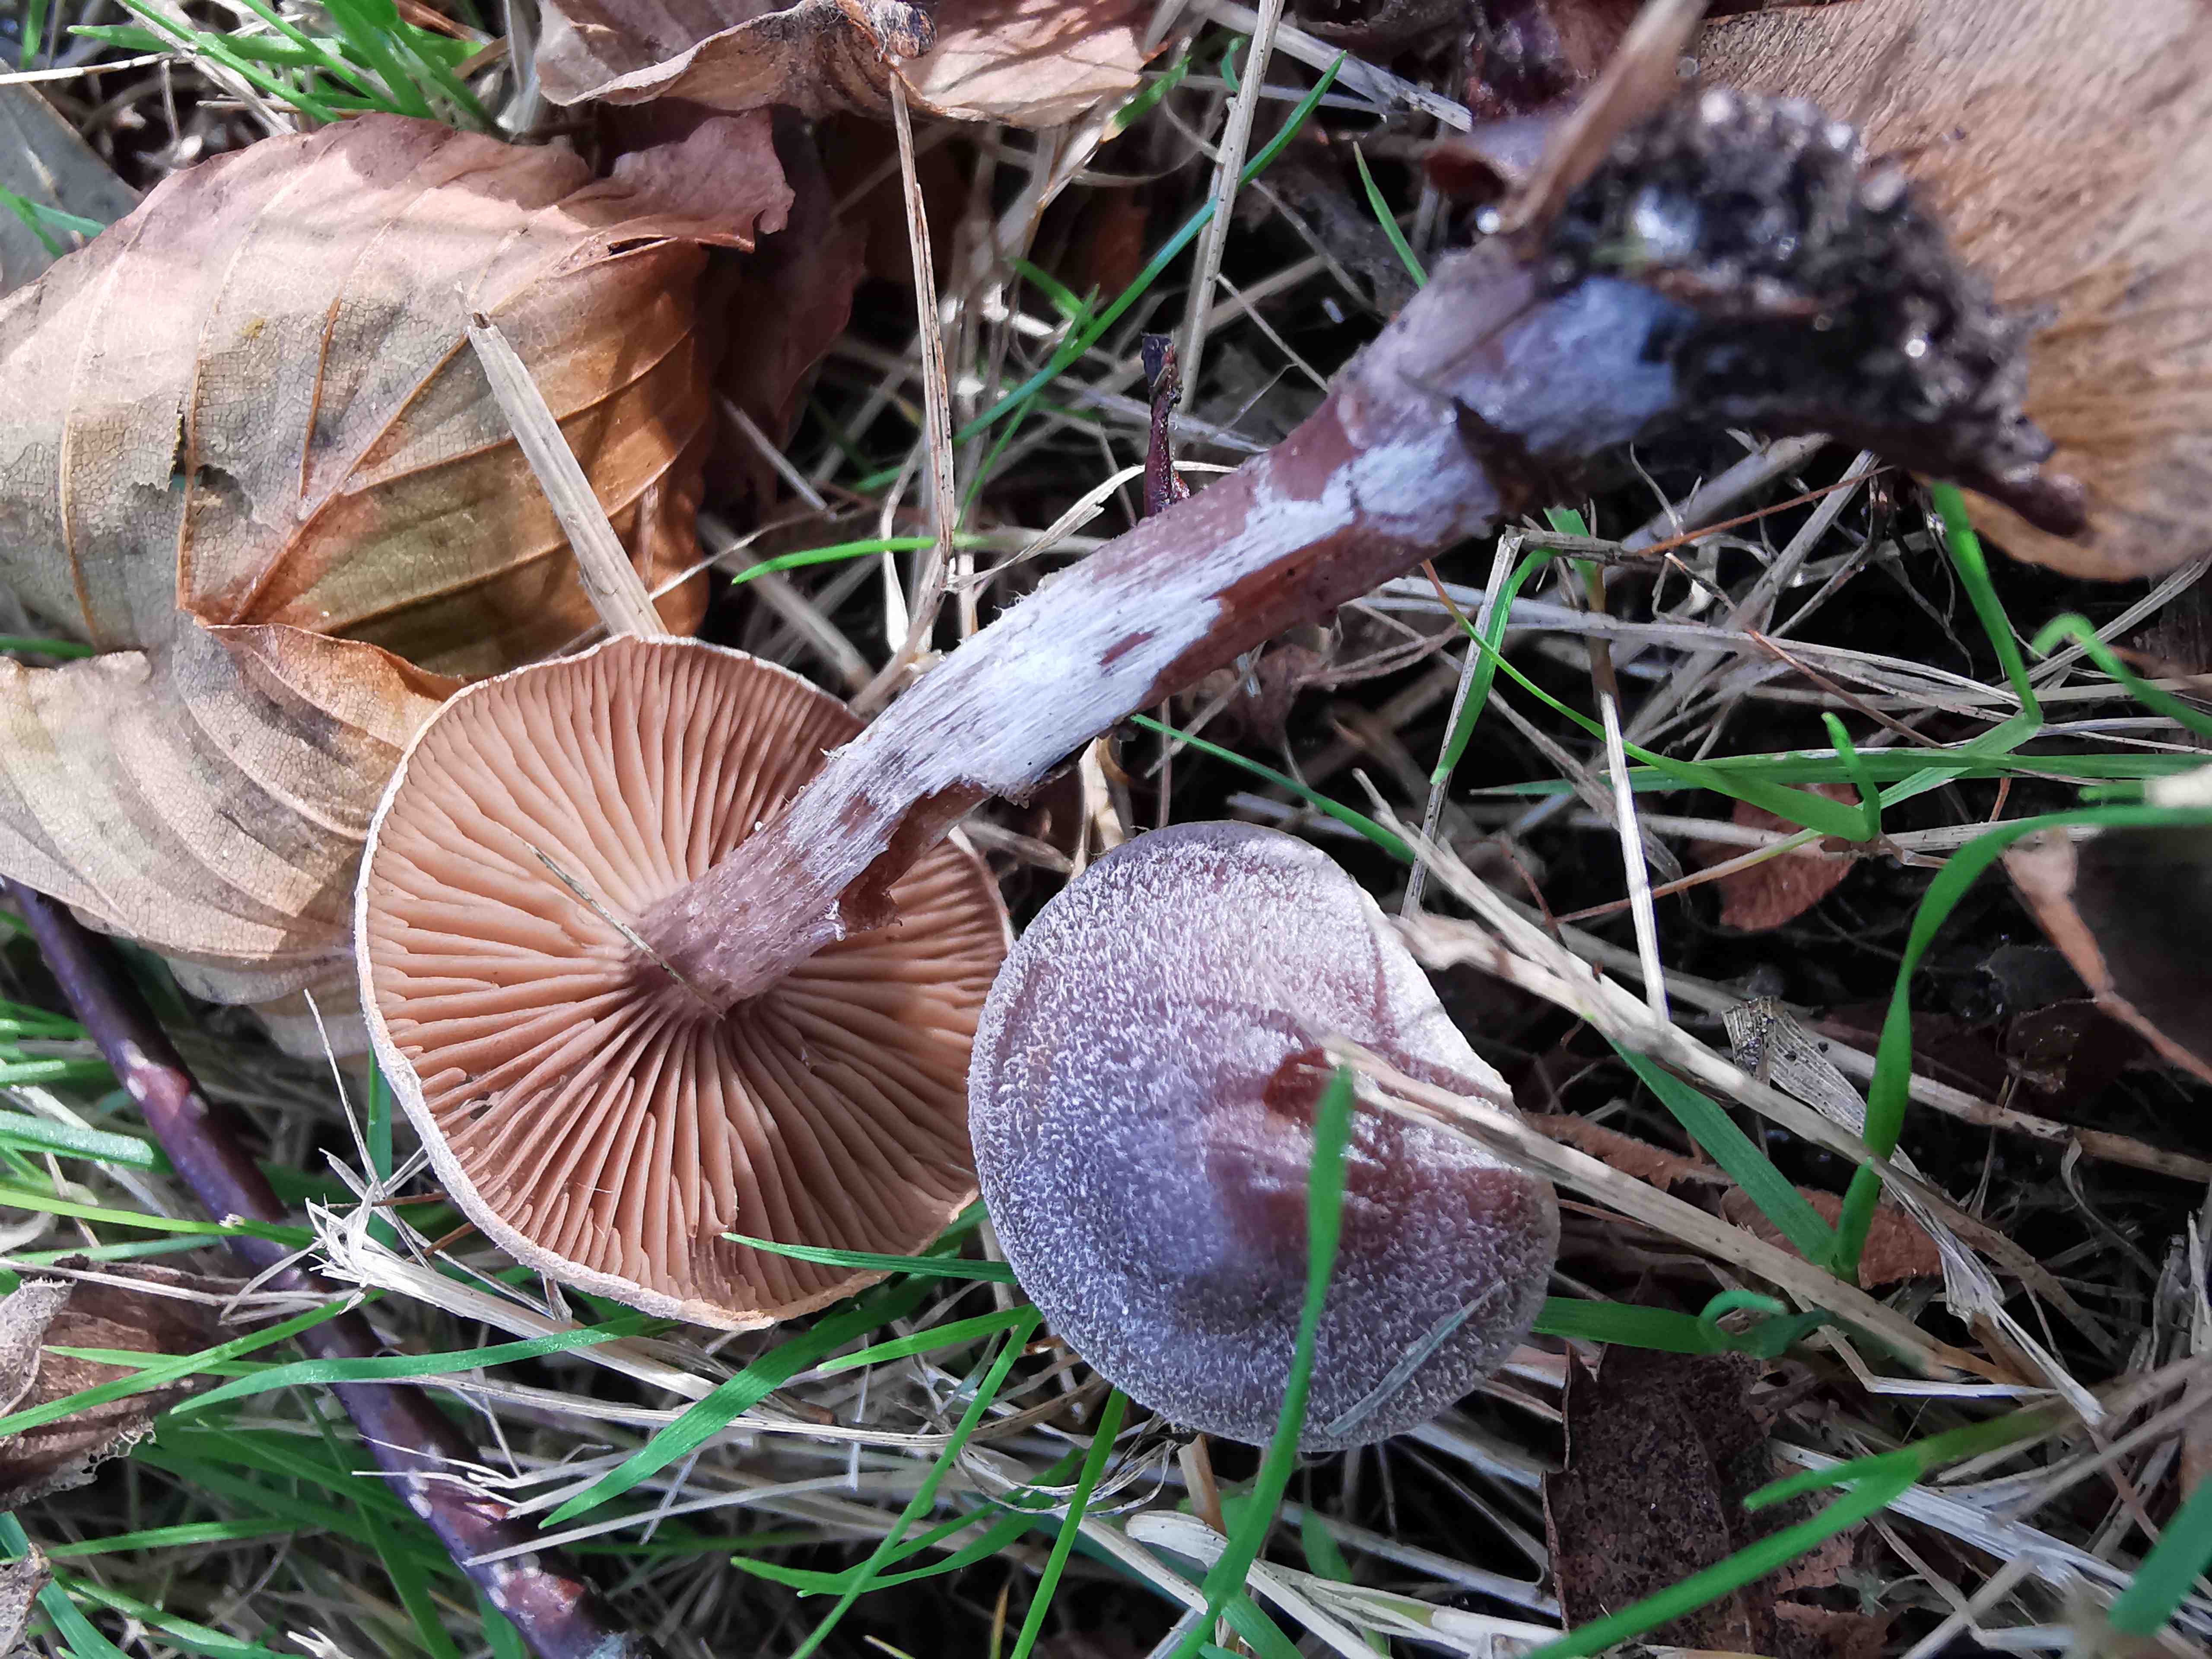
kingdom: Fungi
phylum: Basidiomycota
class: Agaricomycetes
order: Agaricales
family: Cortinariaceae
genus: Cortinarius
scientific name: Cortinarius hemitrichus
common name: hvidfnugget slørhat
